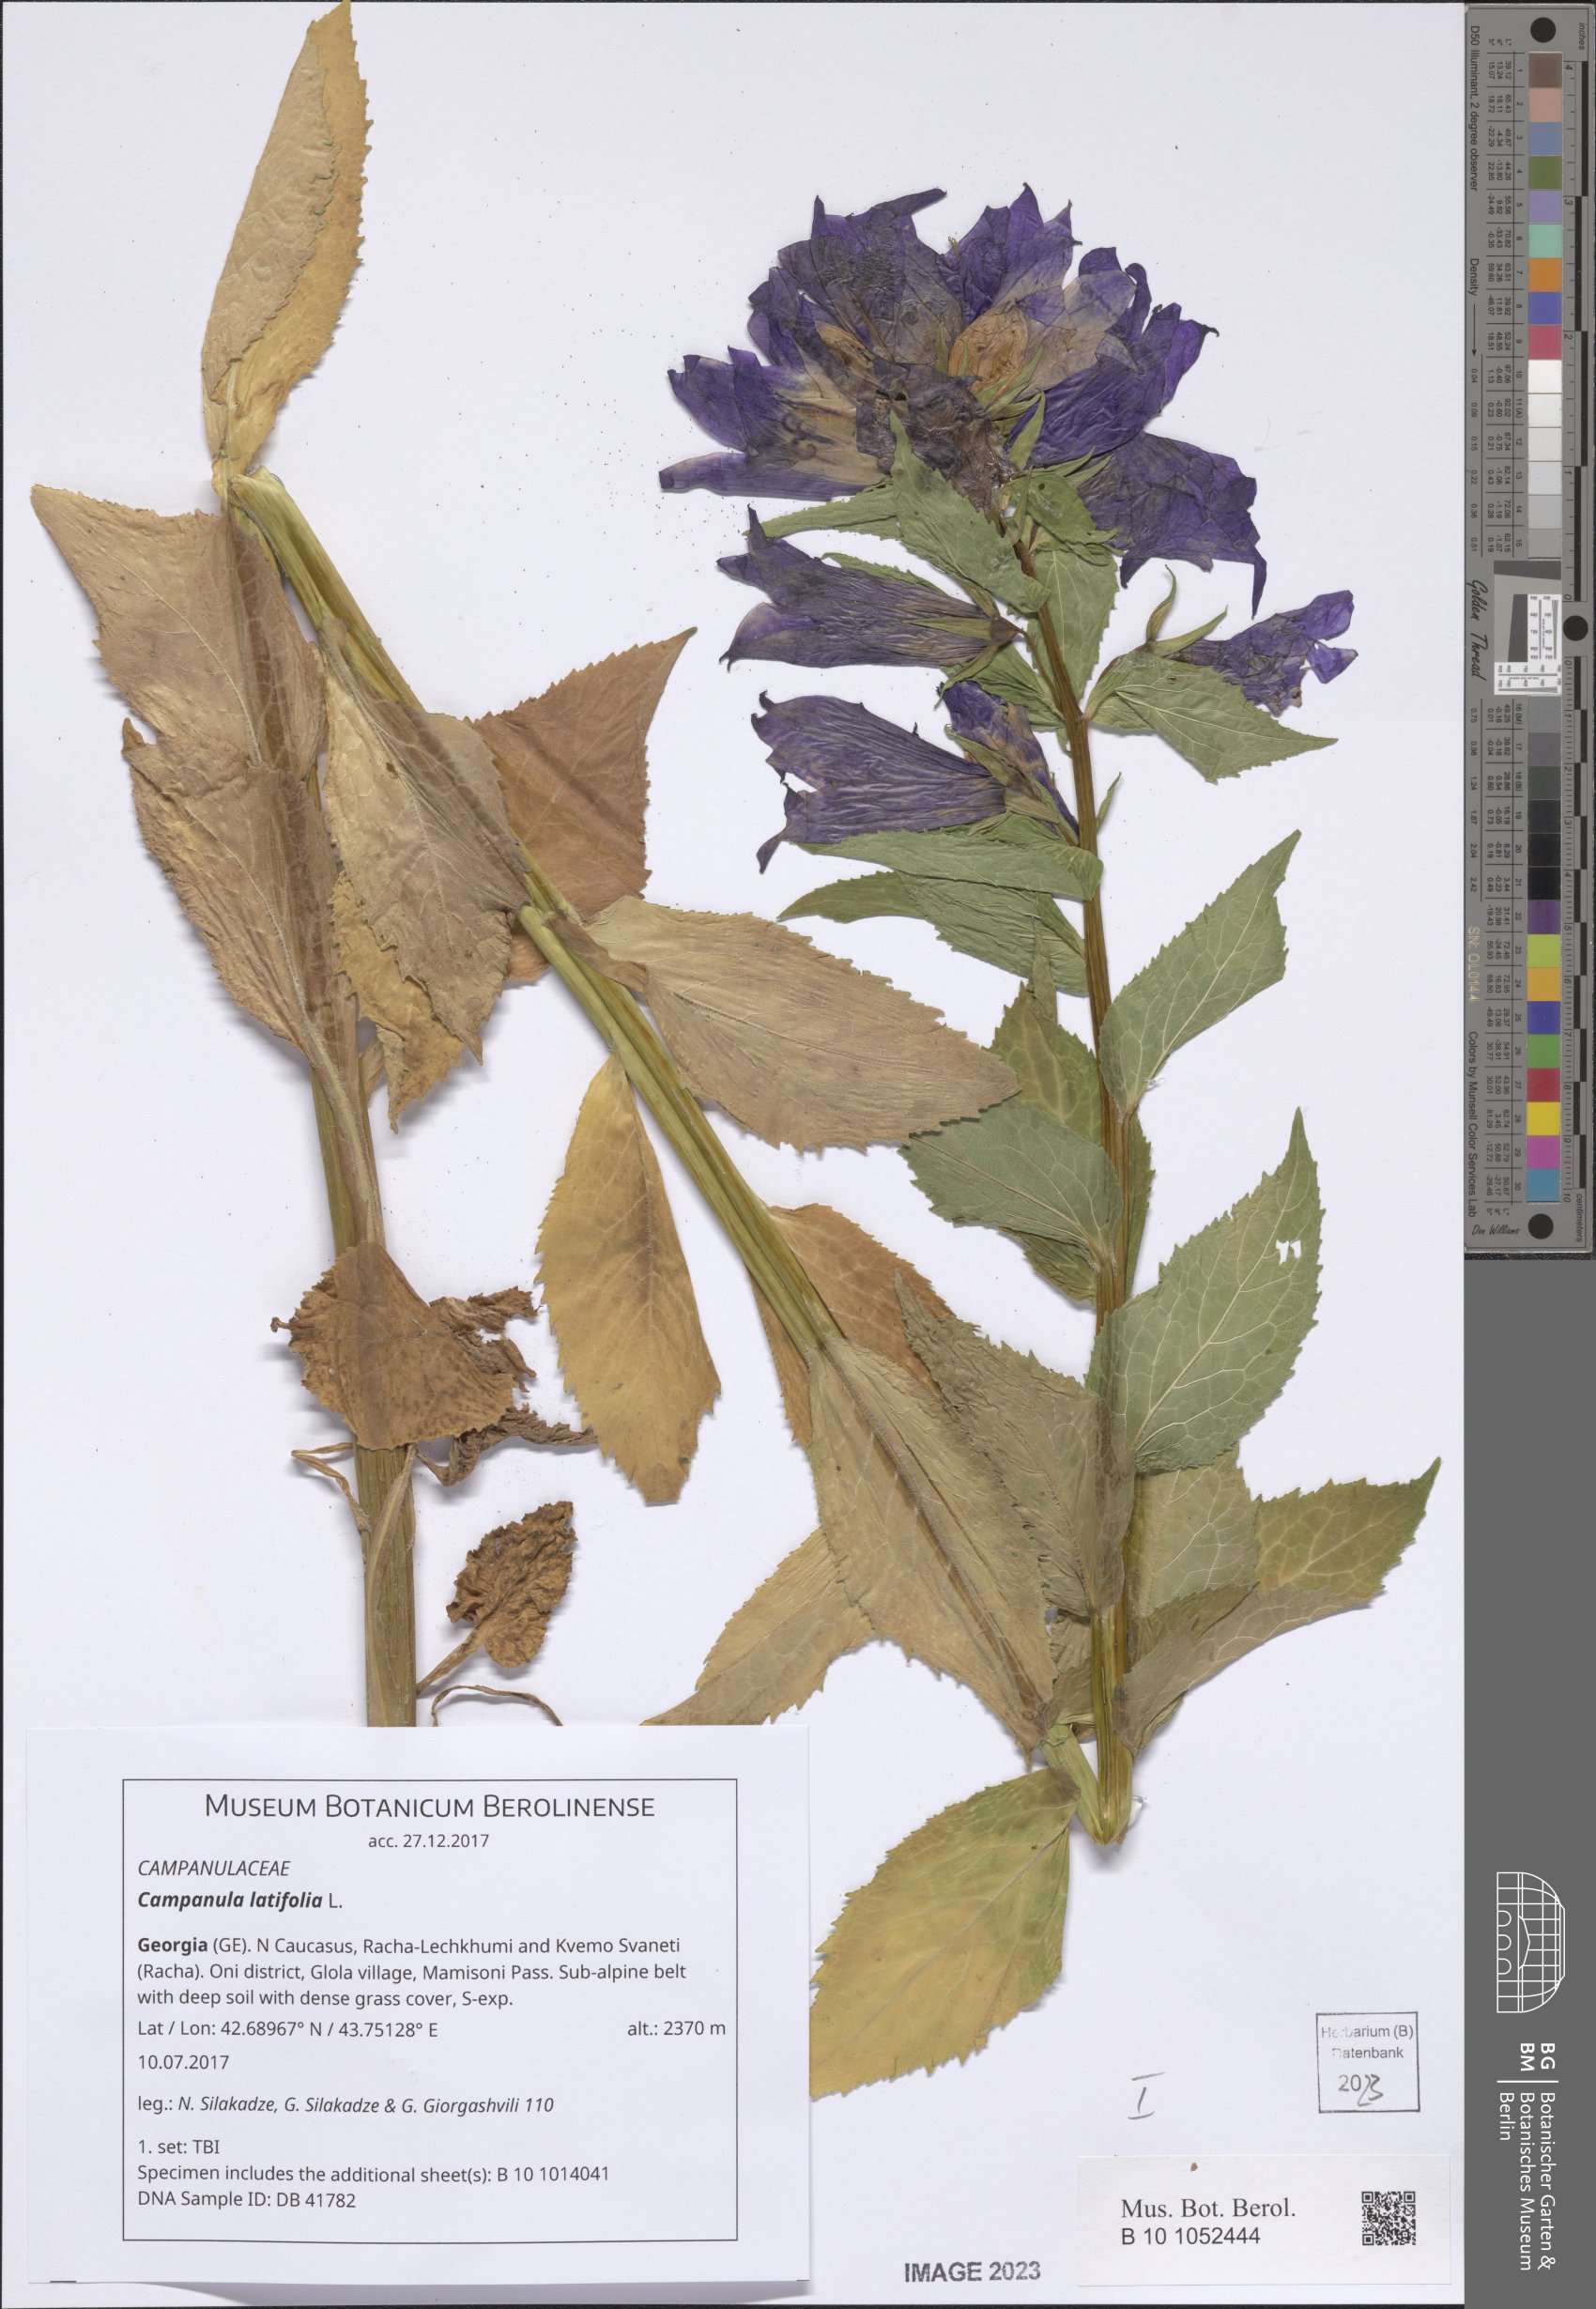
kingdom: Plantae
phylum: Tracheophyta
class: Magnoliopsida
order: Asterales
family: Campanulaceae
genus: Campanula
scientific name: Campanula latifolia
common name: Giant bellflower
